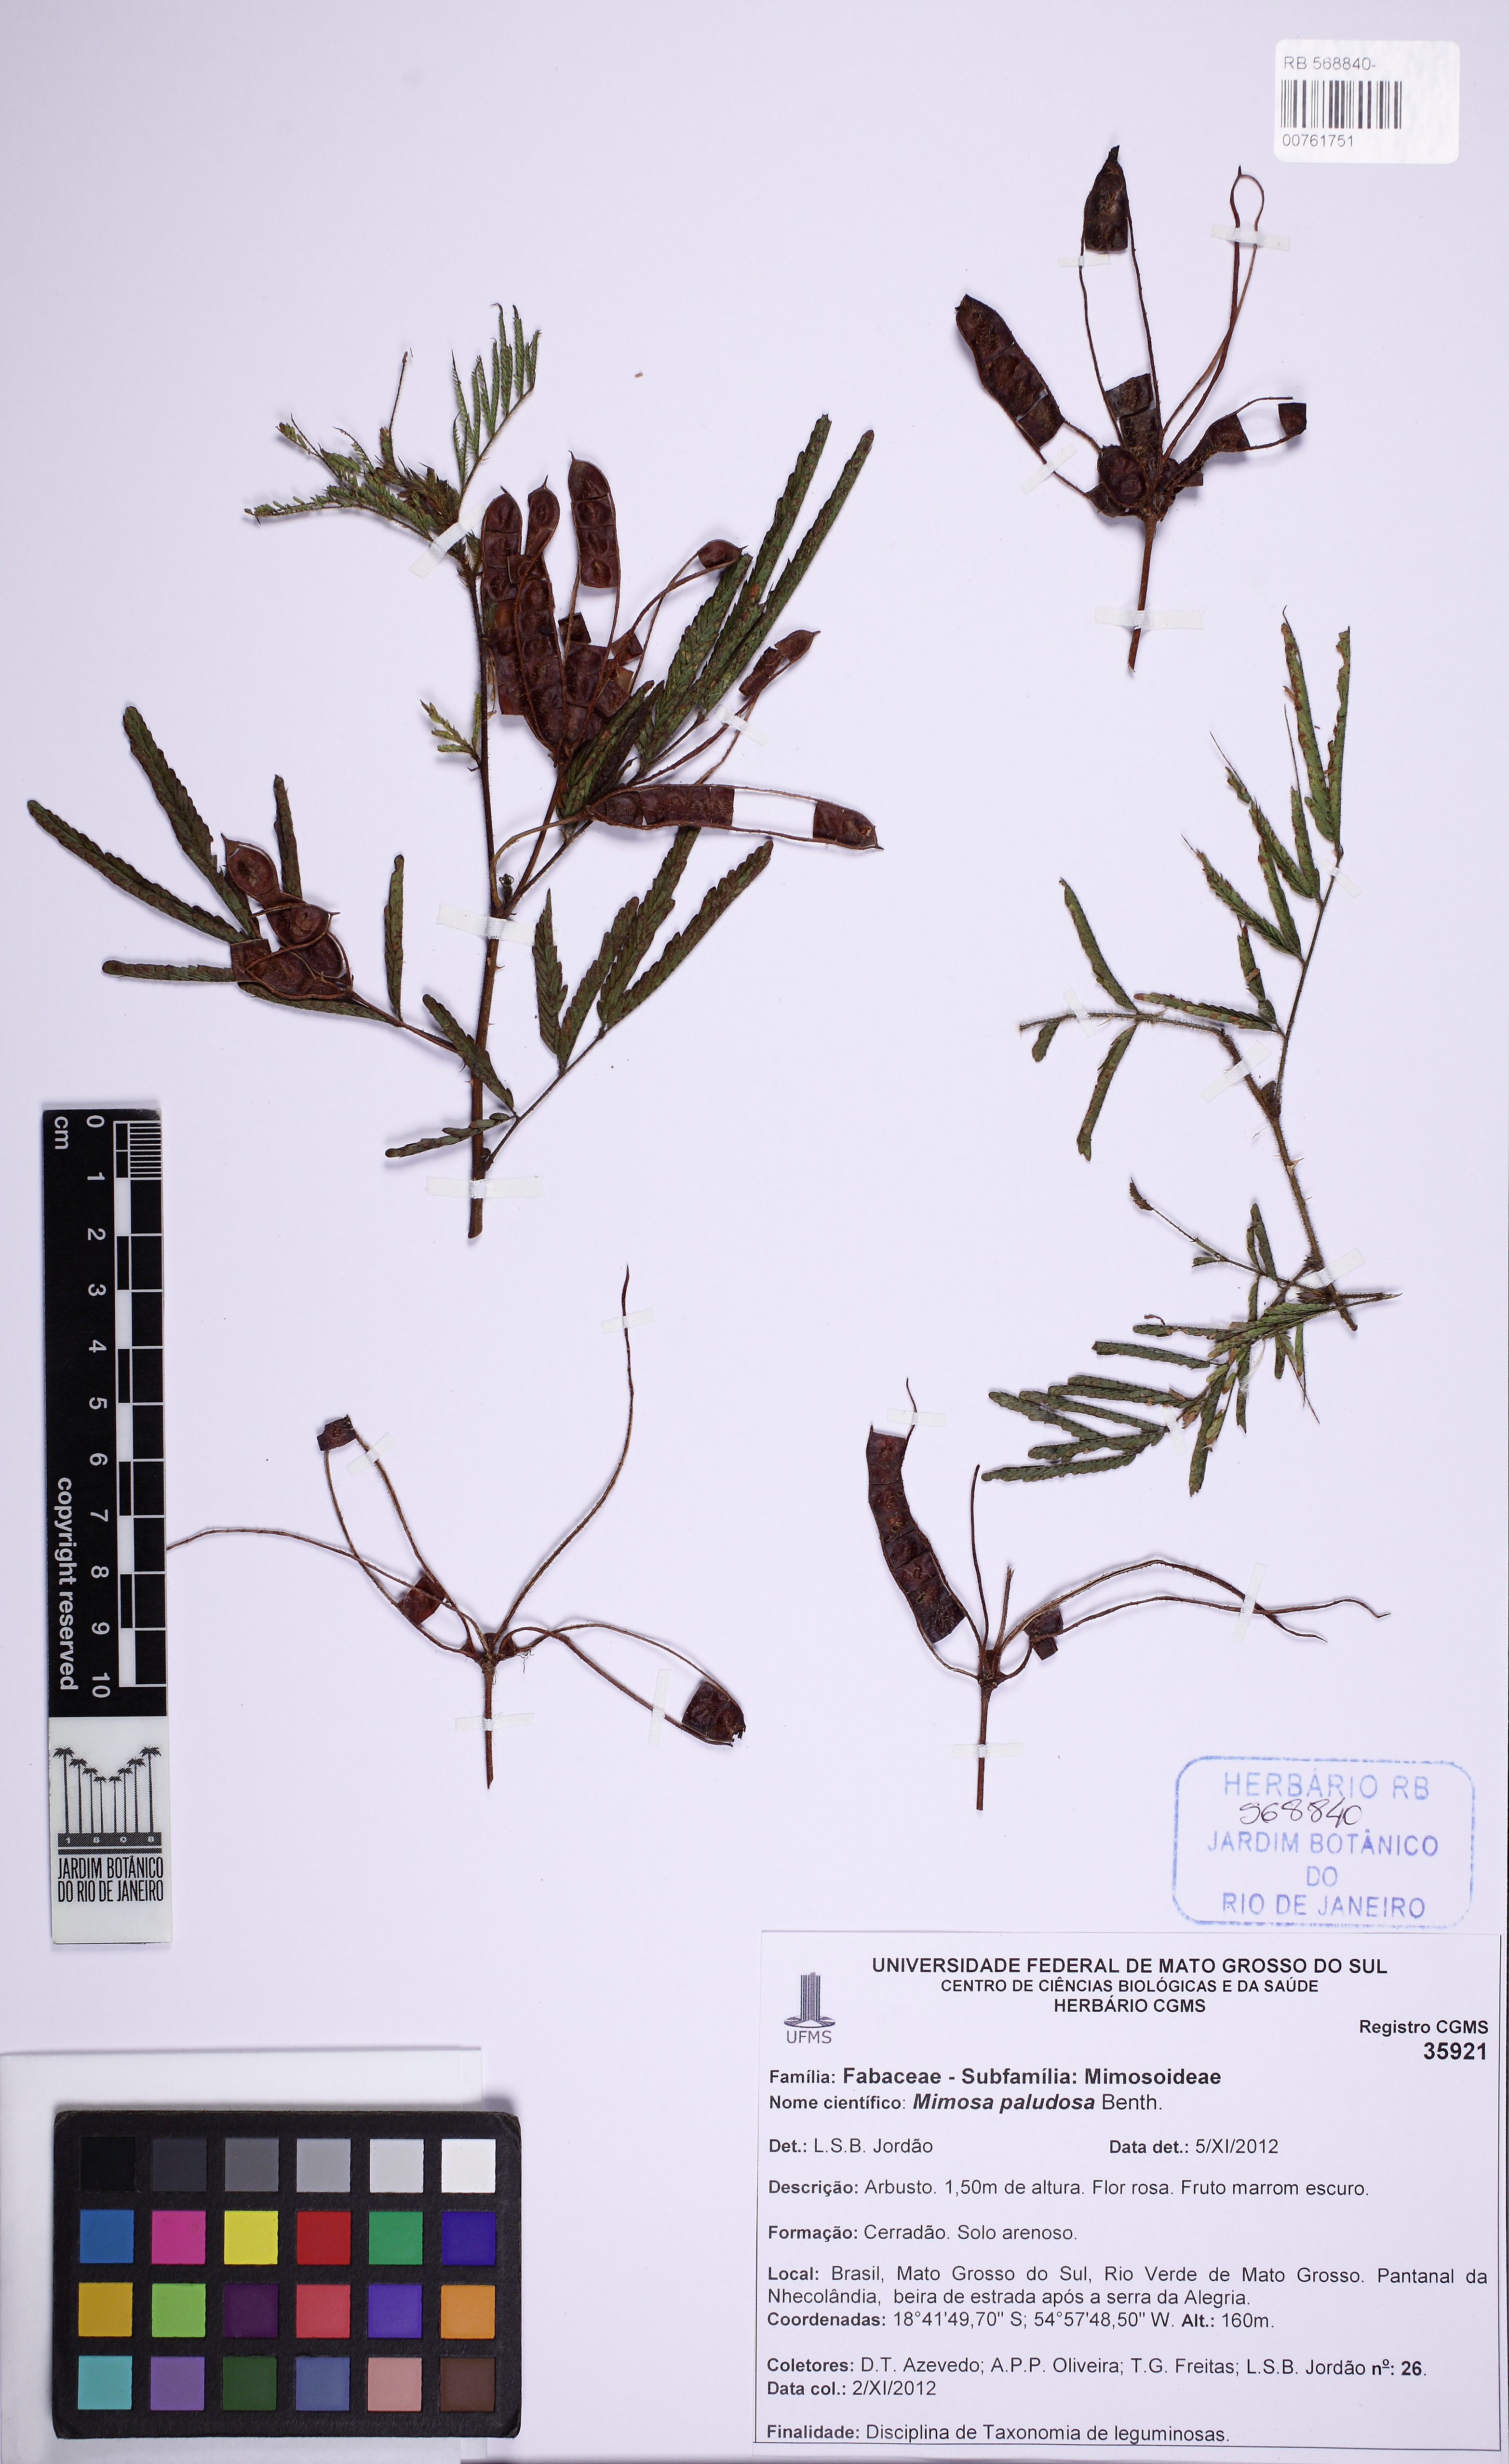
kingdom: Plantae
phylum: Tracheophyta
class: Magnoliopsida
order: Fabales
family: Fabaceae
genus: Mimosa
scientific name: Mimosa paludosa
